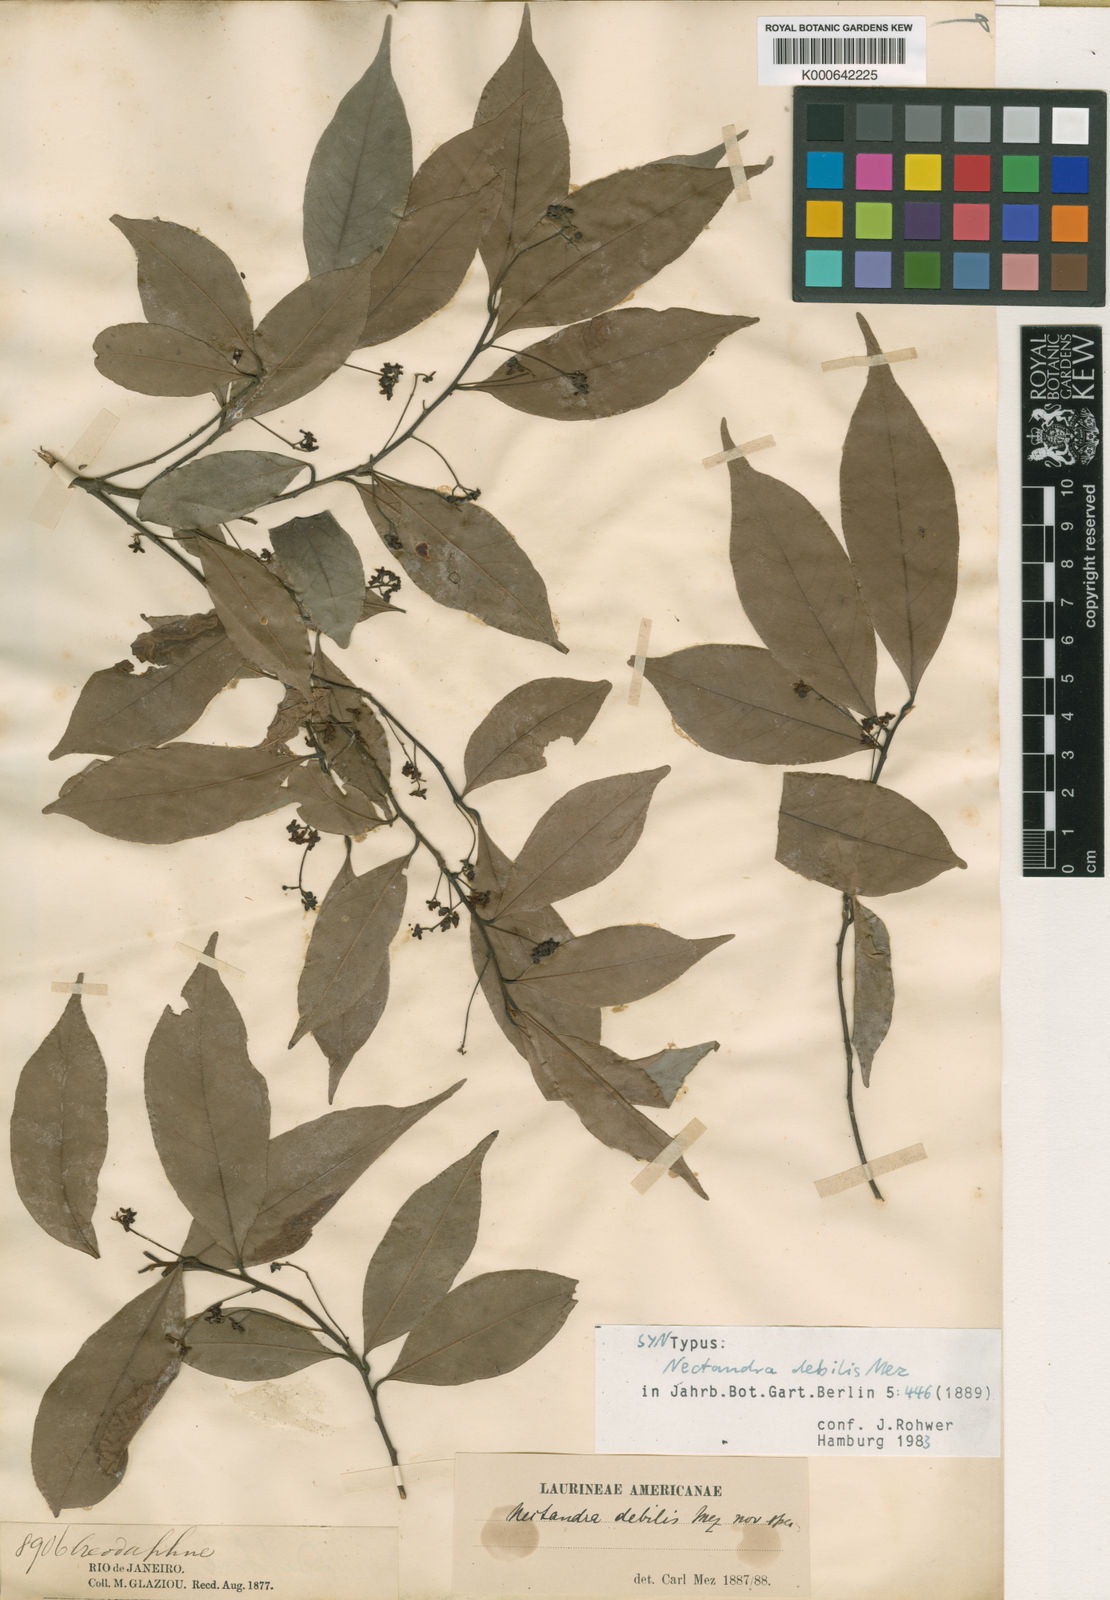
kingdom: Plantae
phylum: Tracheophyta
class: Magnoliopsida
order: Laurales
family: Lauraceae
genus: Nectandra
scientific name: Nectandra debilis
